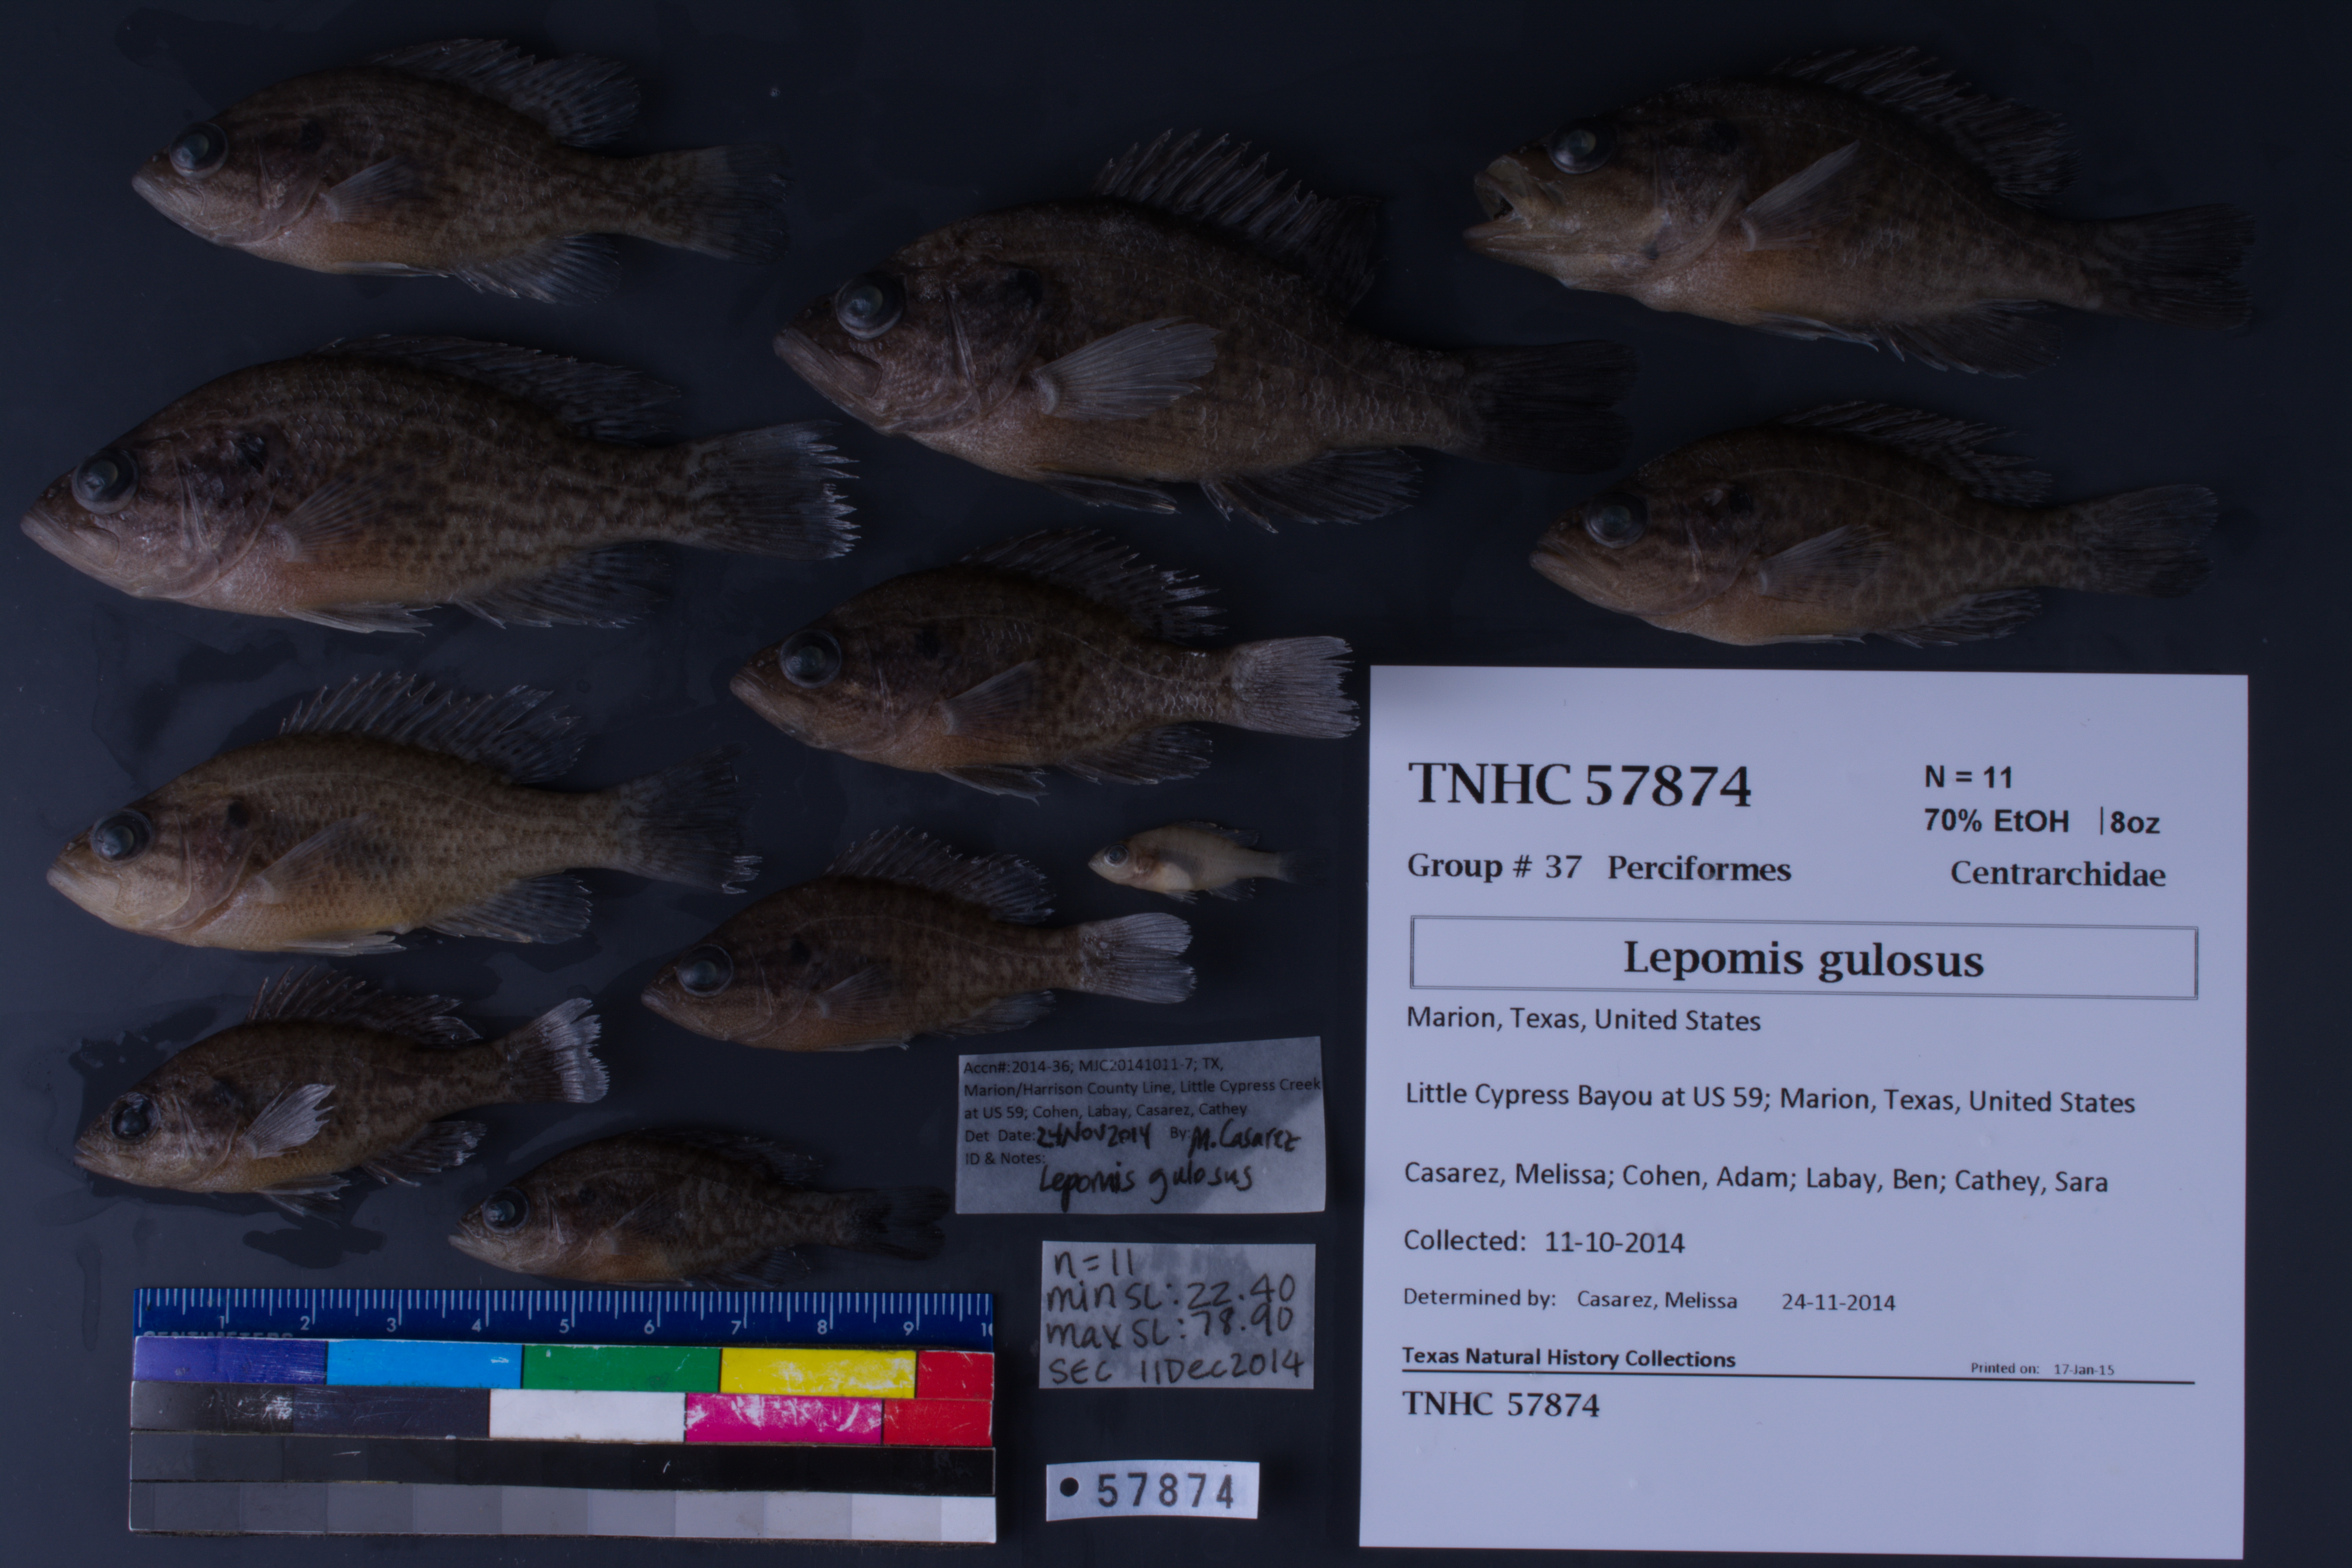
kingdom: Animalia
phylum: Chordata
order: Perciformes
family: Centrarchidae
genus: Lepomis
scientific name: Lepomis gulosus
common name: Warmouth
